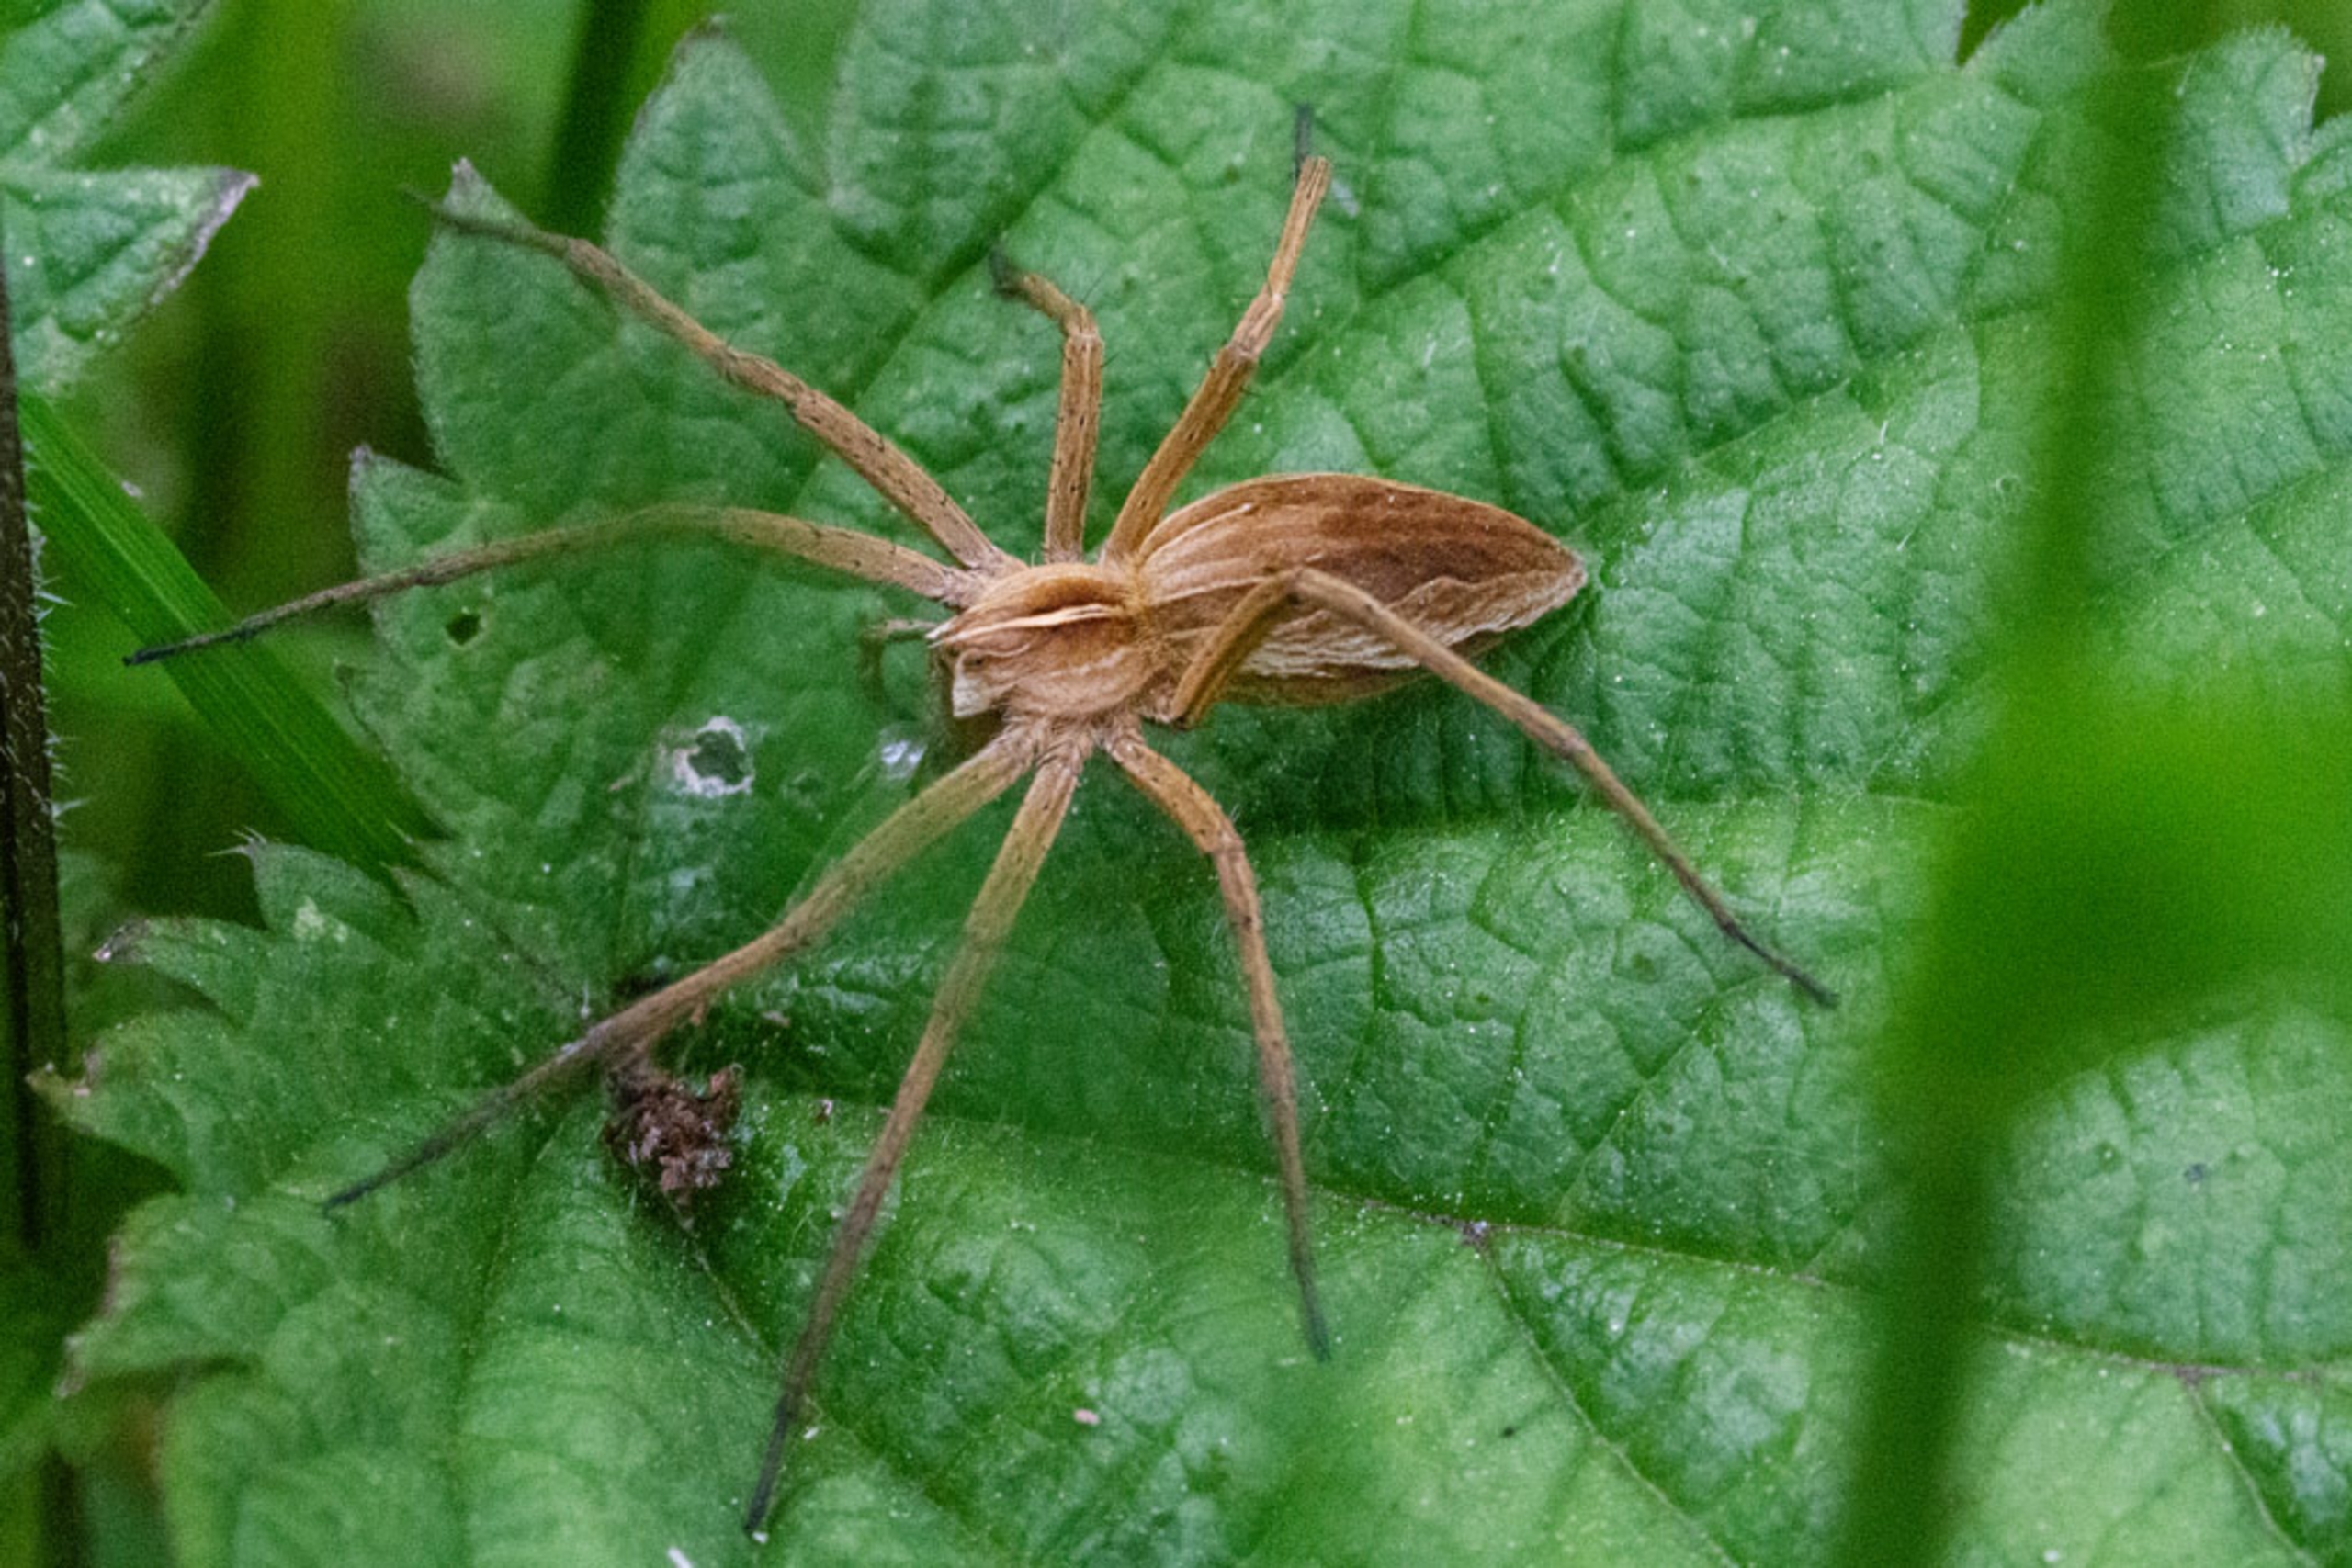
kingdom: Animalia
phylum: Arthropoda
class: Arachnida
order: Araneae
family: Pisauridae
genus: Pisaura
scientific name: Pisaura mirabilis
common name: Almindelig rovedderkop
